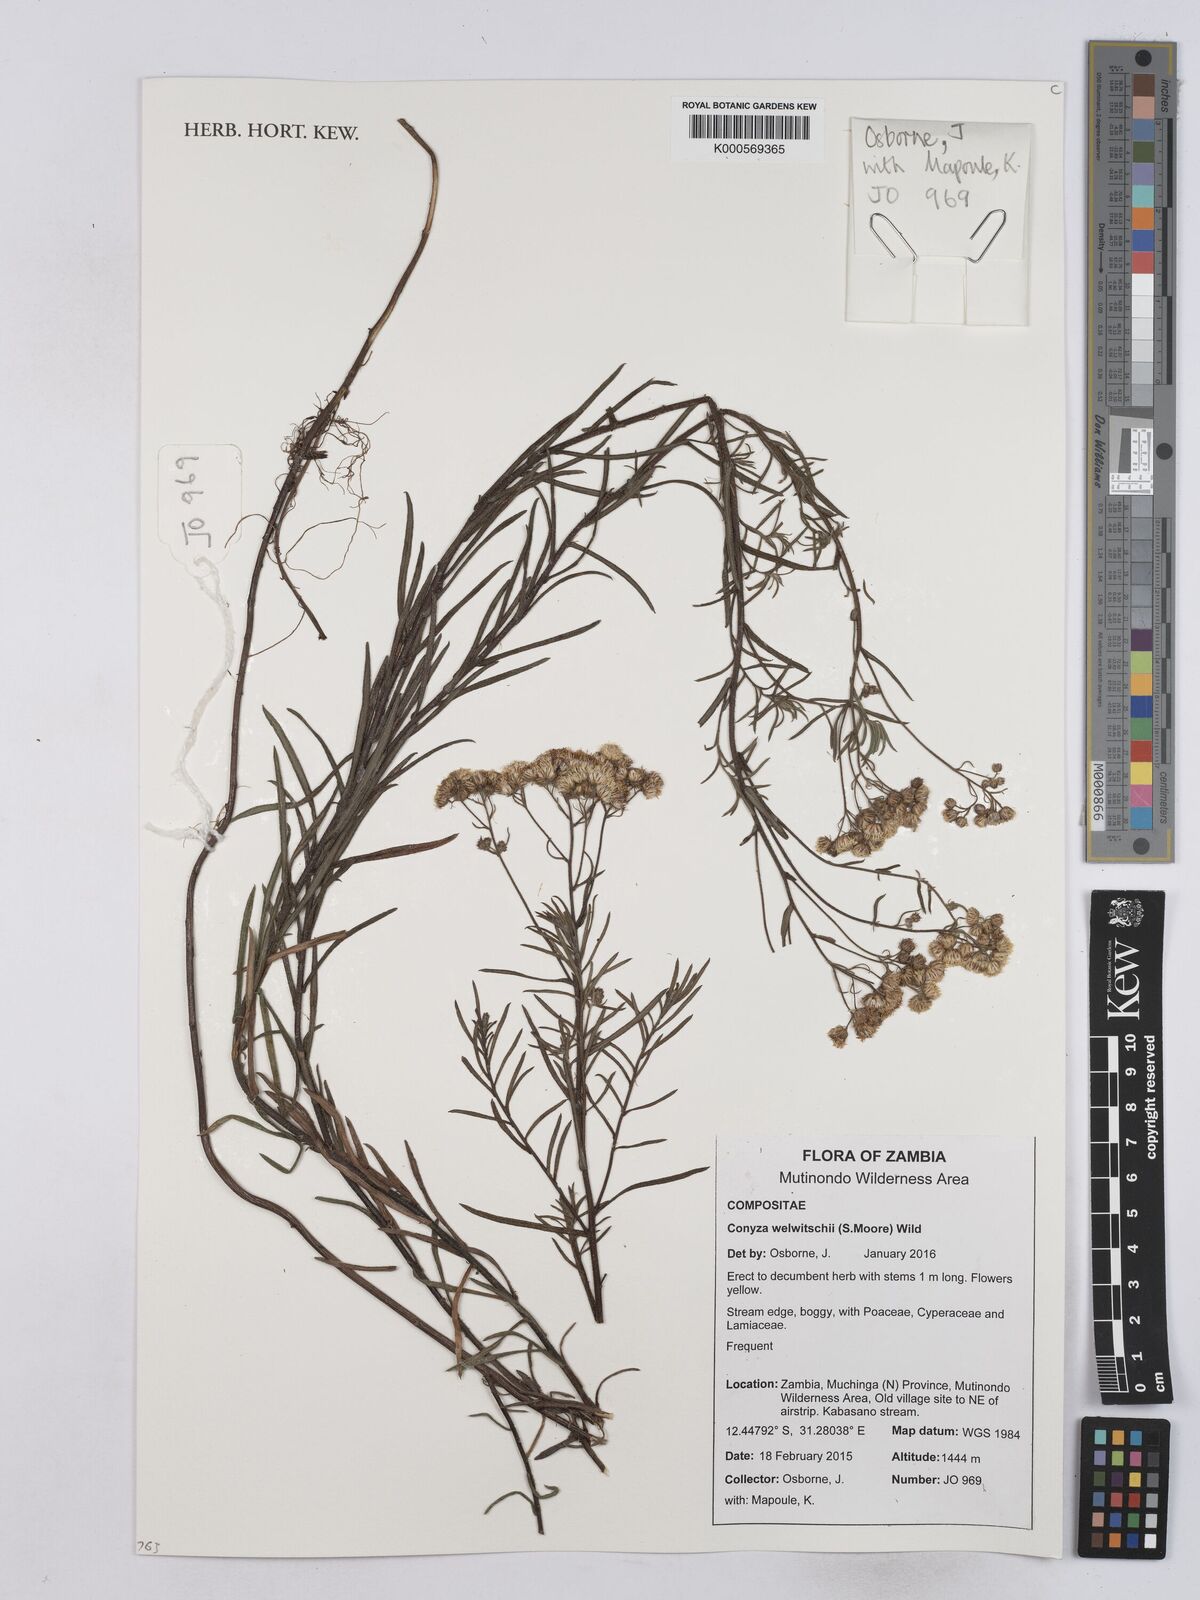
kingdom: Plantae
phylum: Tracheophyta
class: Magnoliopsida
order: Asterales
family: Asteraceae
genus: Nidorella
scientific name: Nidorella welwitschii
